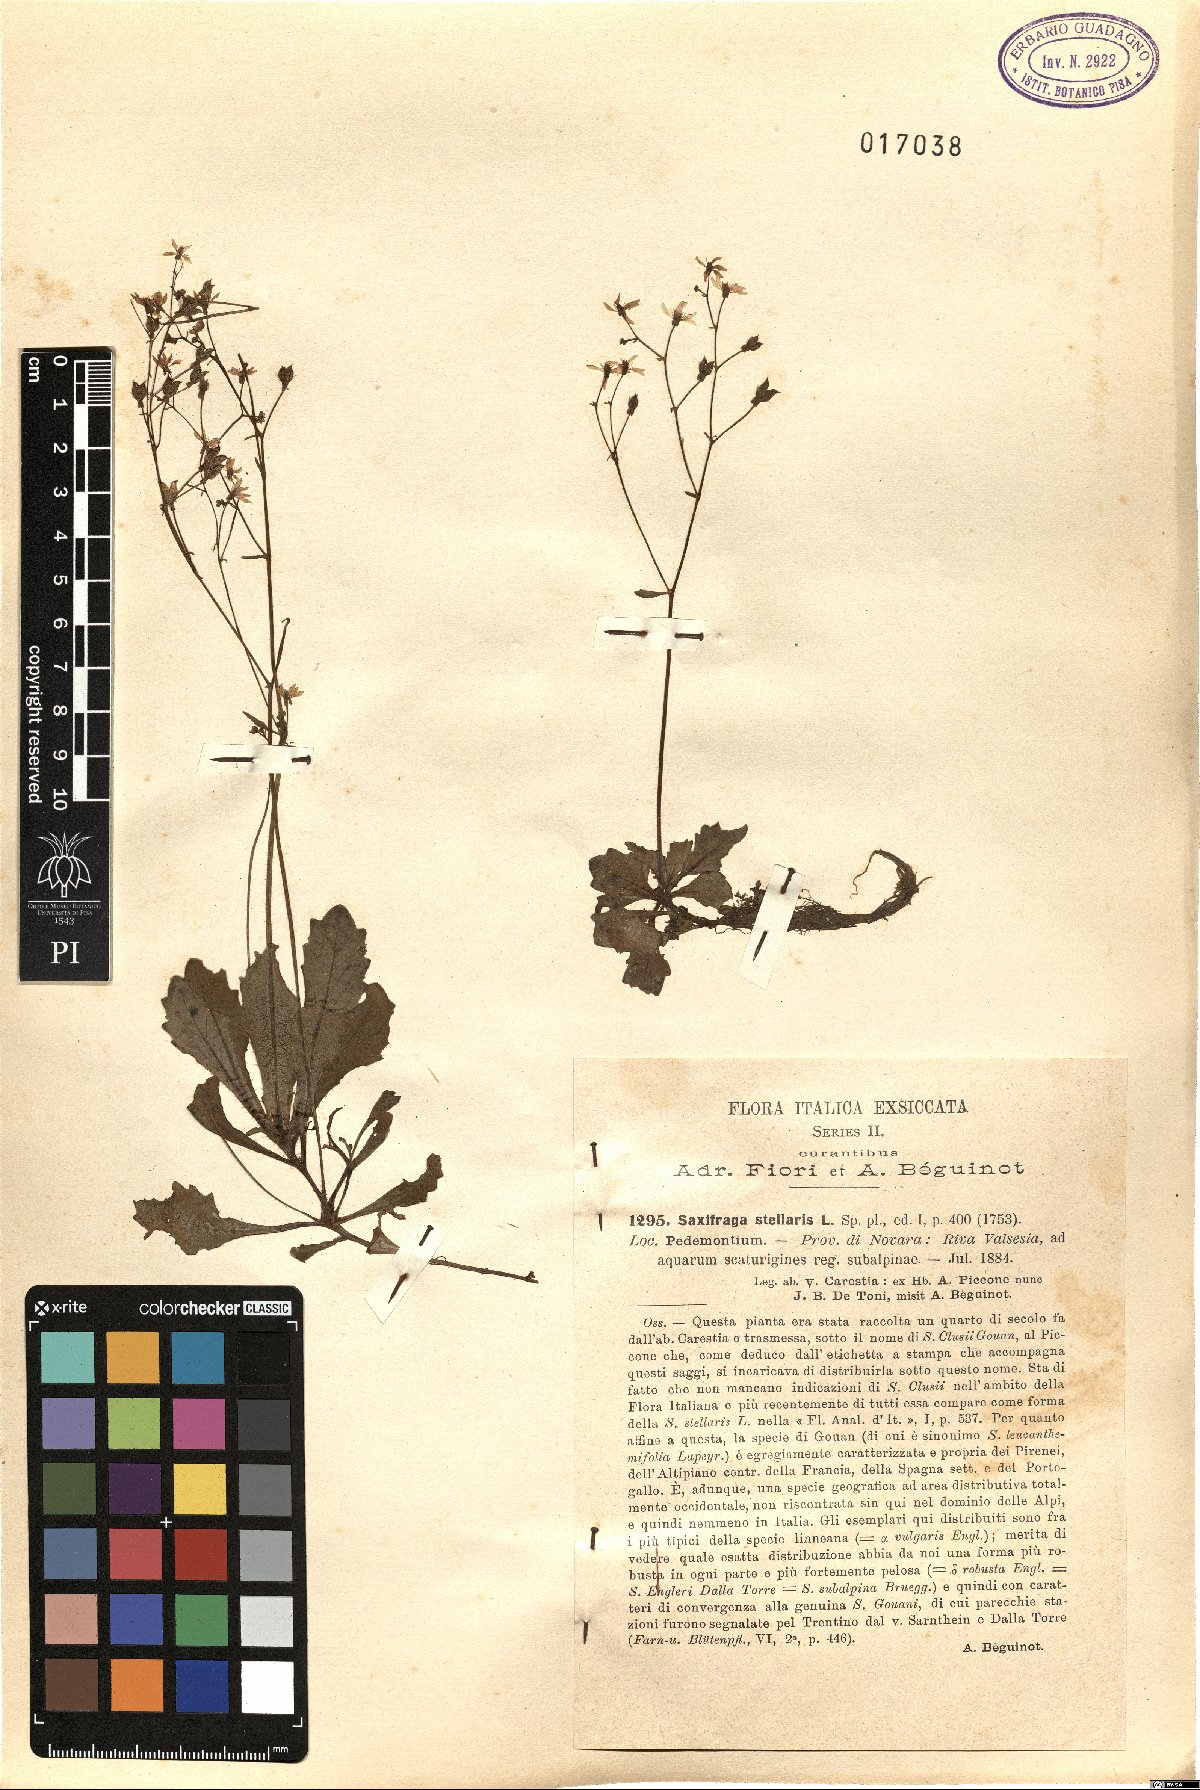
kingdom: Plantae
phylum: Tracheophyta
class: Magnoliopsida
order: Saxifragales
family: Saxifragaceae
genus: Micranthes
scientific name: Micranthes stellaris
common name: Starry saxifrage
